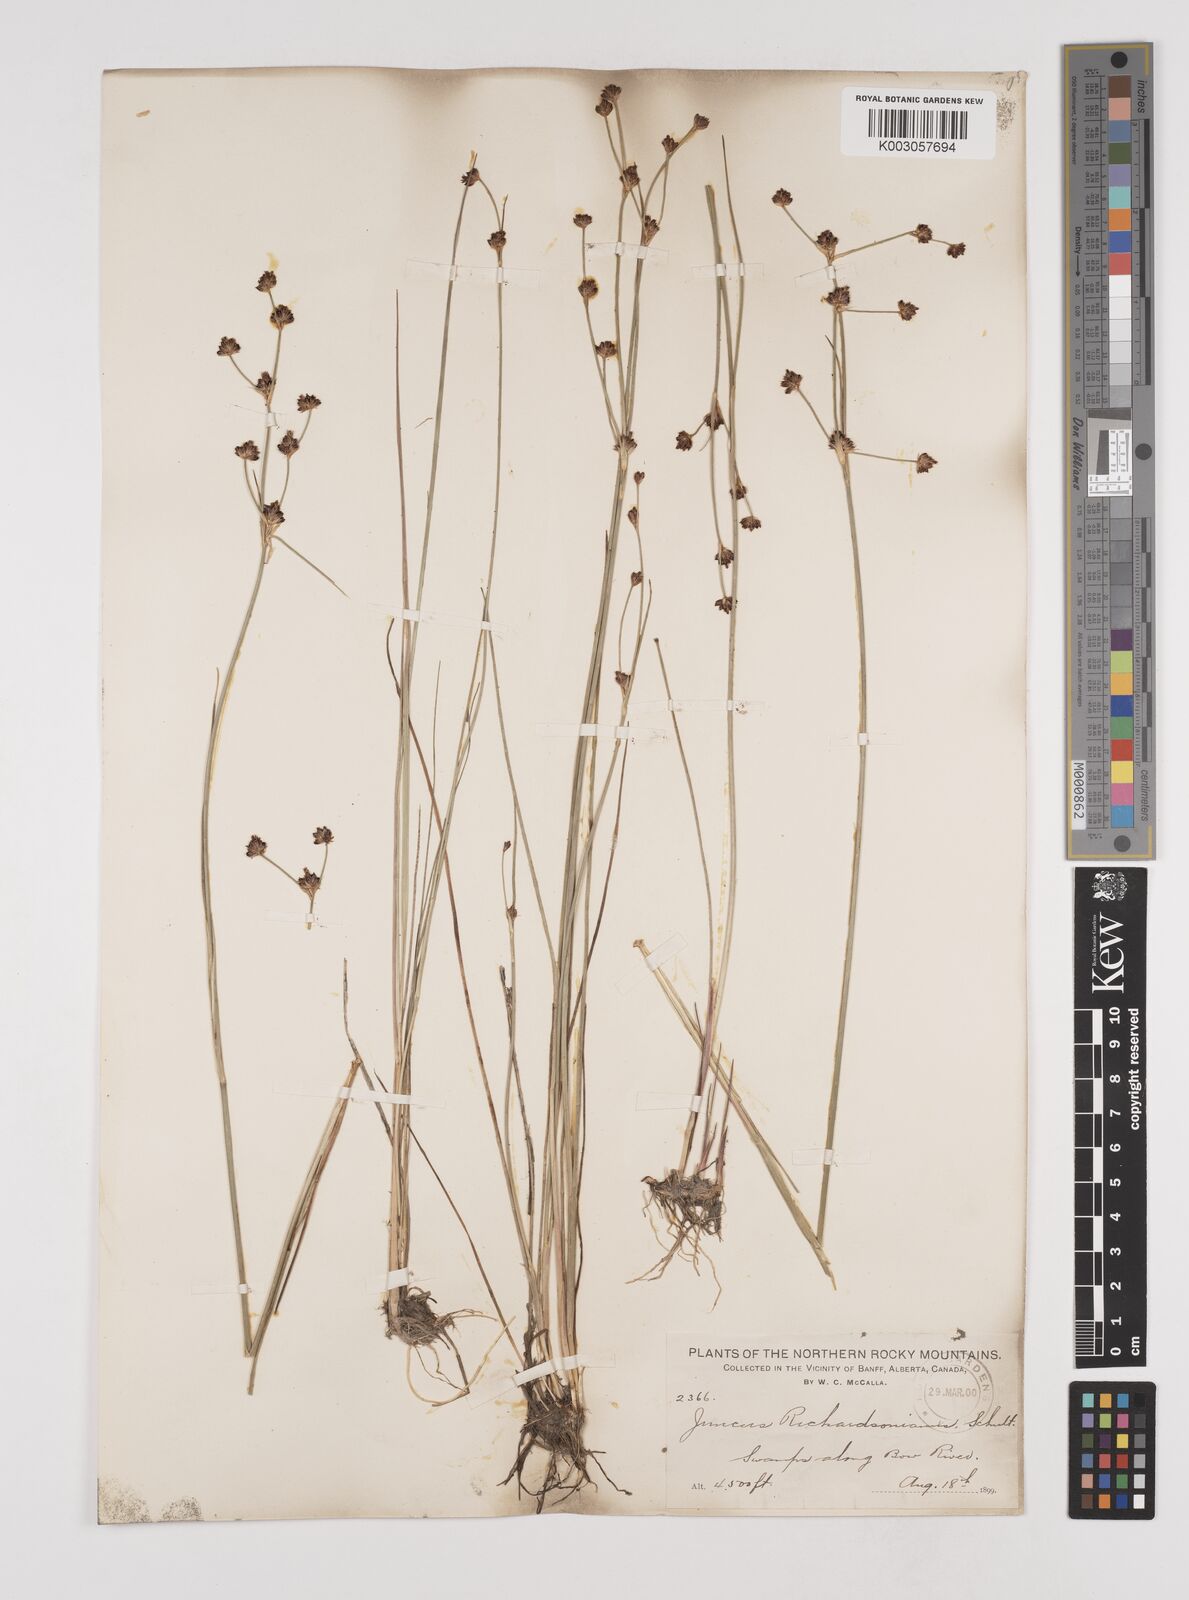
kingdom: Plantae
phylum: Tracheophyta
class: Liliopsida
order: Poales
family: Juncaceae
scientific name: Juncaceae
